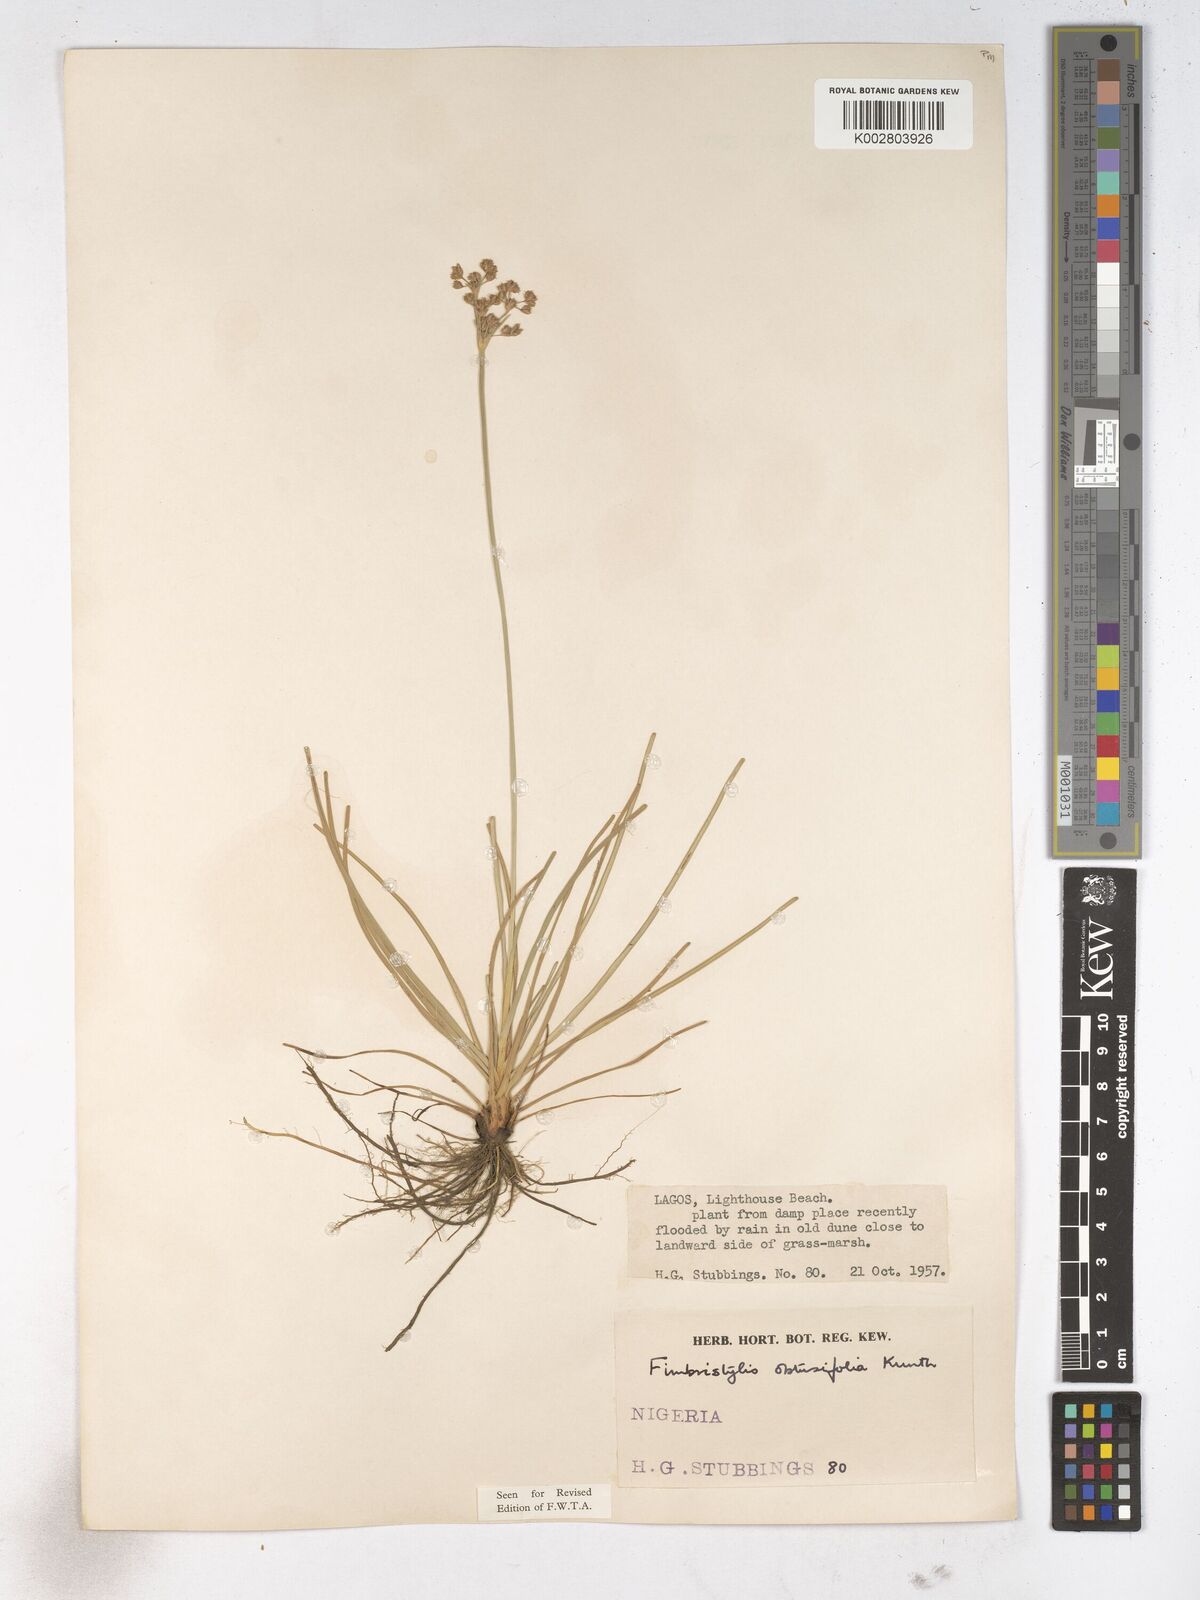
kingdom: Plantae
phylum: Tracheophyta
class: Liliopsida
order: Poales
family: Cyperaceae
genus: Fimbristylis
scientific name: Fimbristylis cymosa
